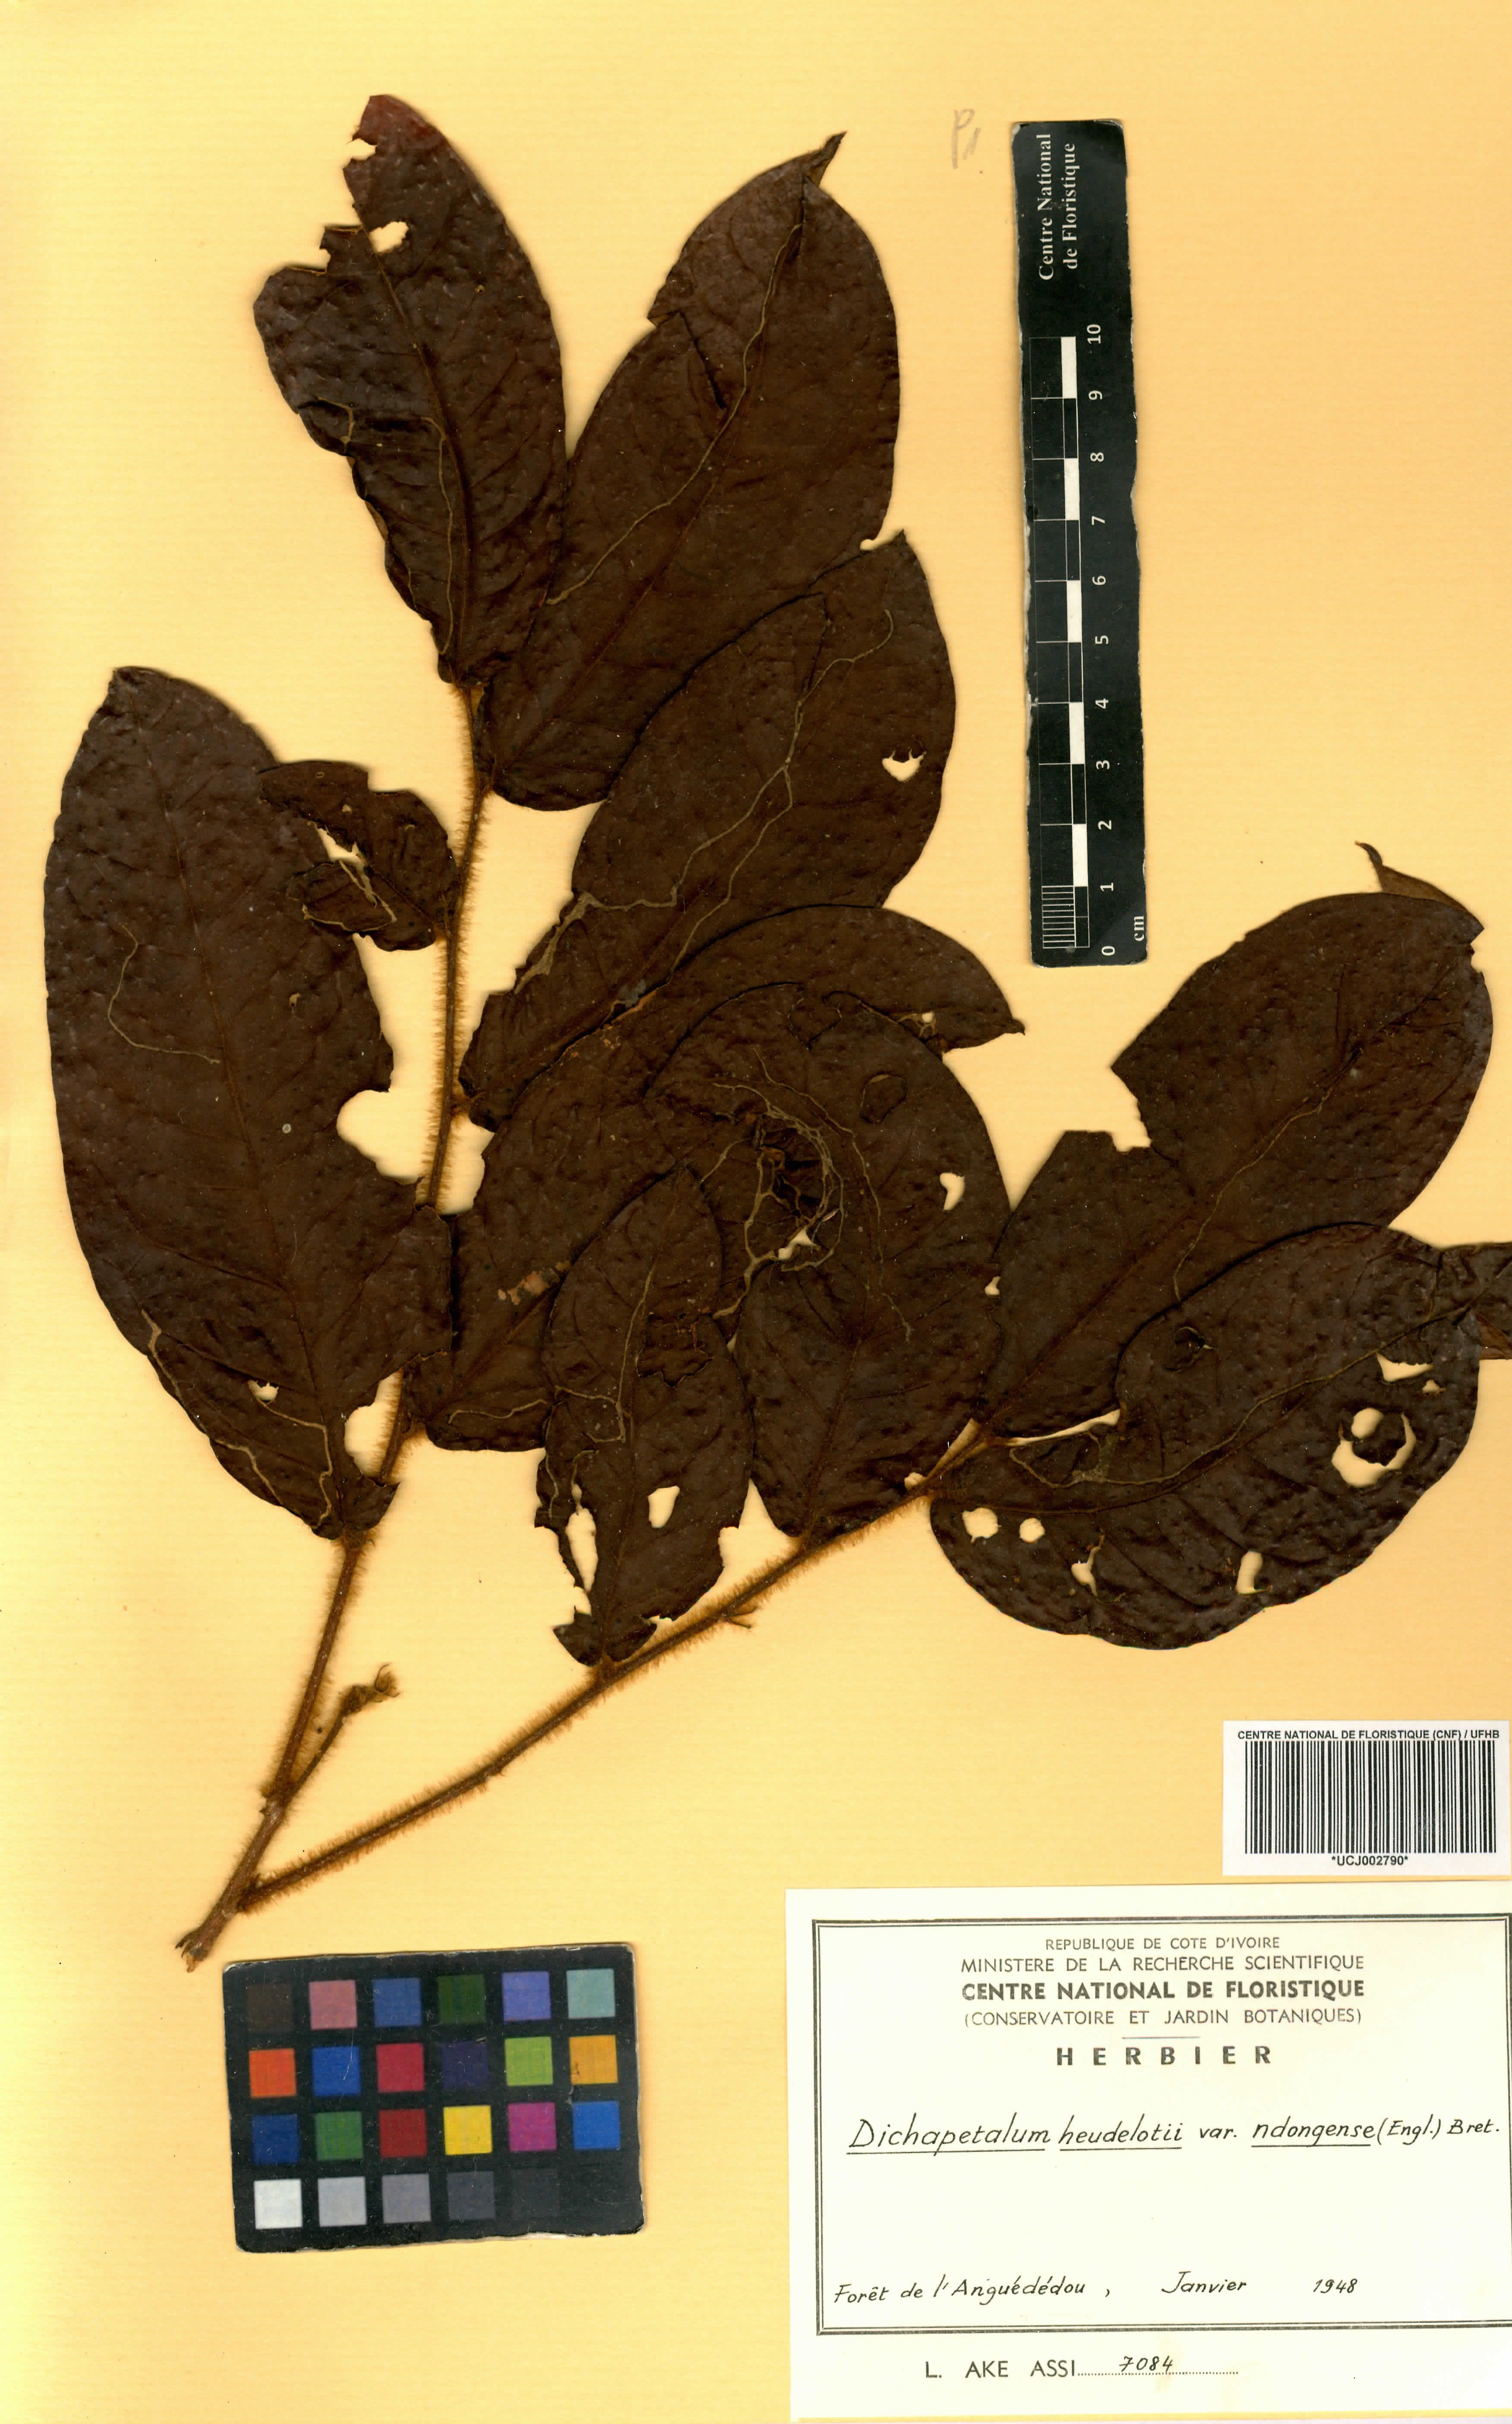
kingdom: Plantae
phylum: Tracheophyta
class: Magnoliopsida
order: Malpighiales
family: Dichapetalaceae
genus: Dichapetalum
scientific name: Dichapetalum heudelotii
